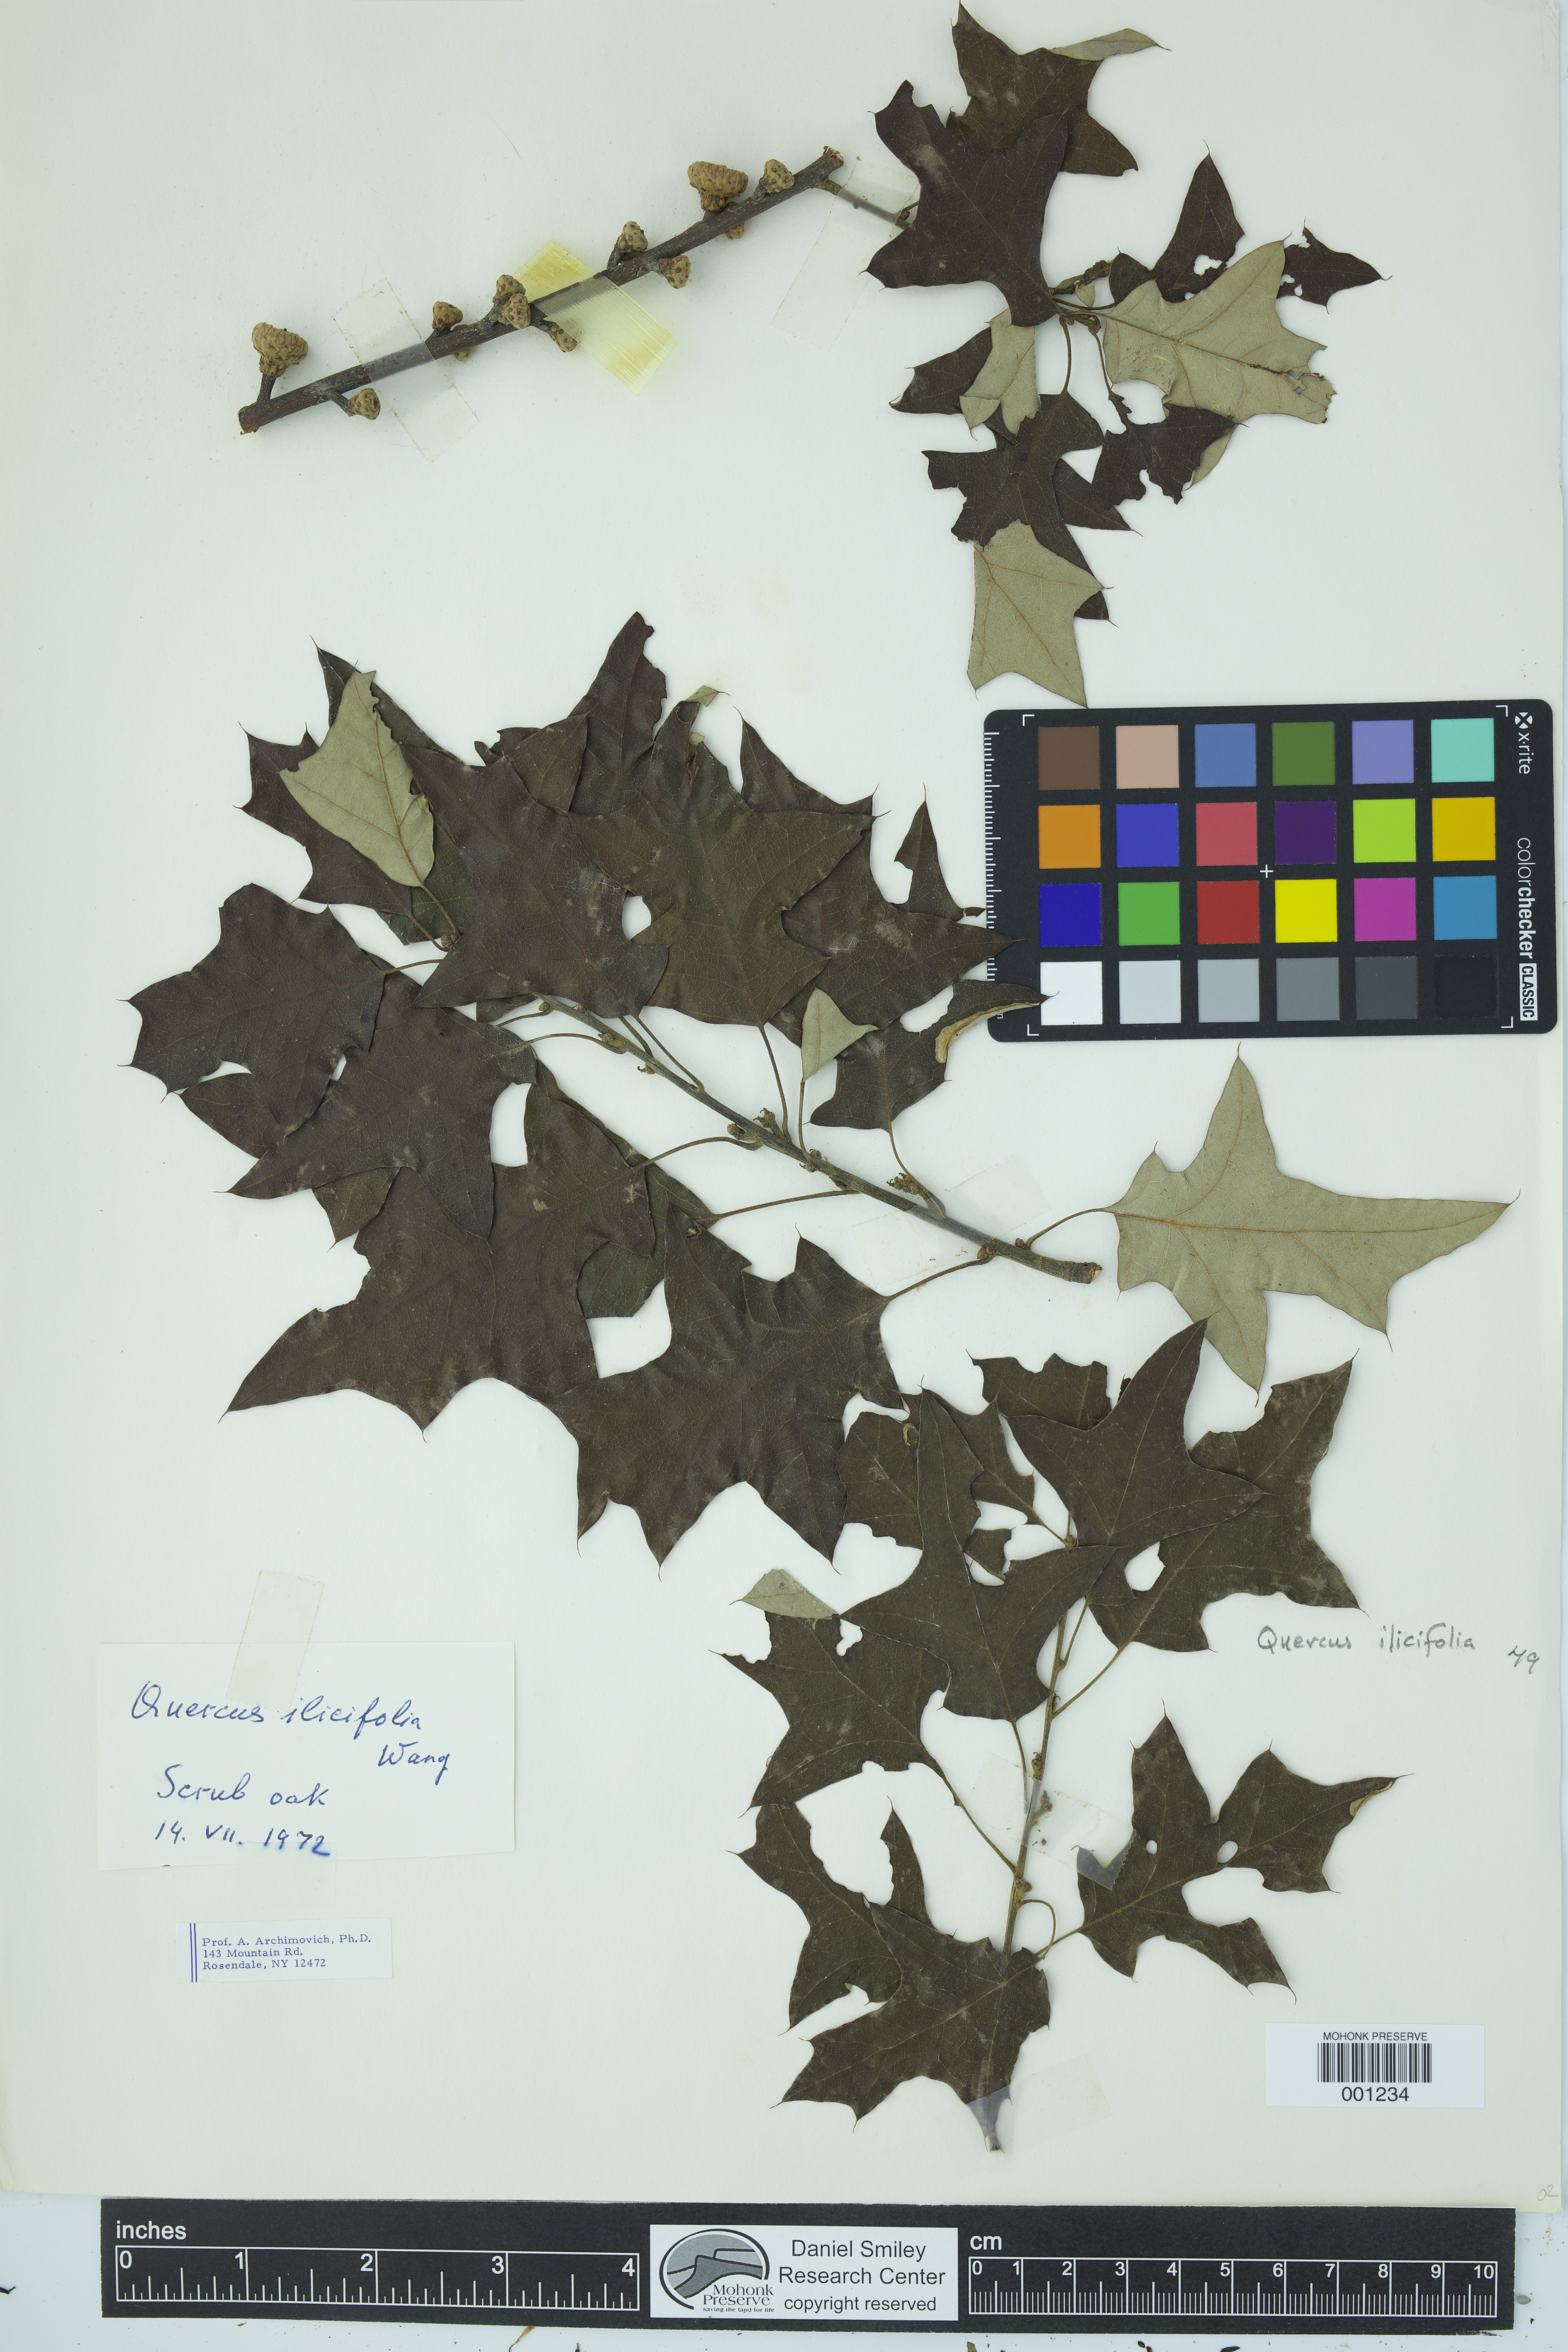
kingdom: Plantae
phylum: Tracheophyta
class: Magnoliopsida
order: Fagales
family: Fagaceae
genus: Quercus
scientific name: Quercus ilicifolia
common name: Bear oak
